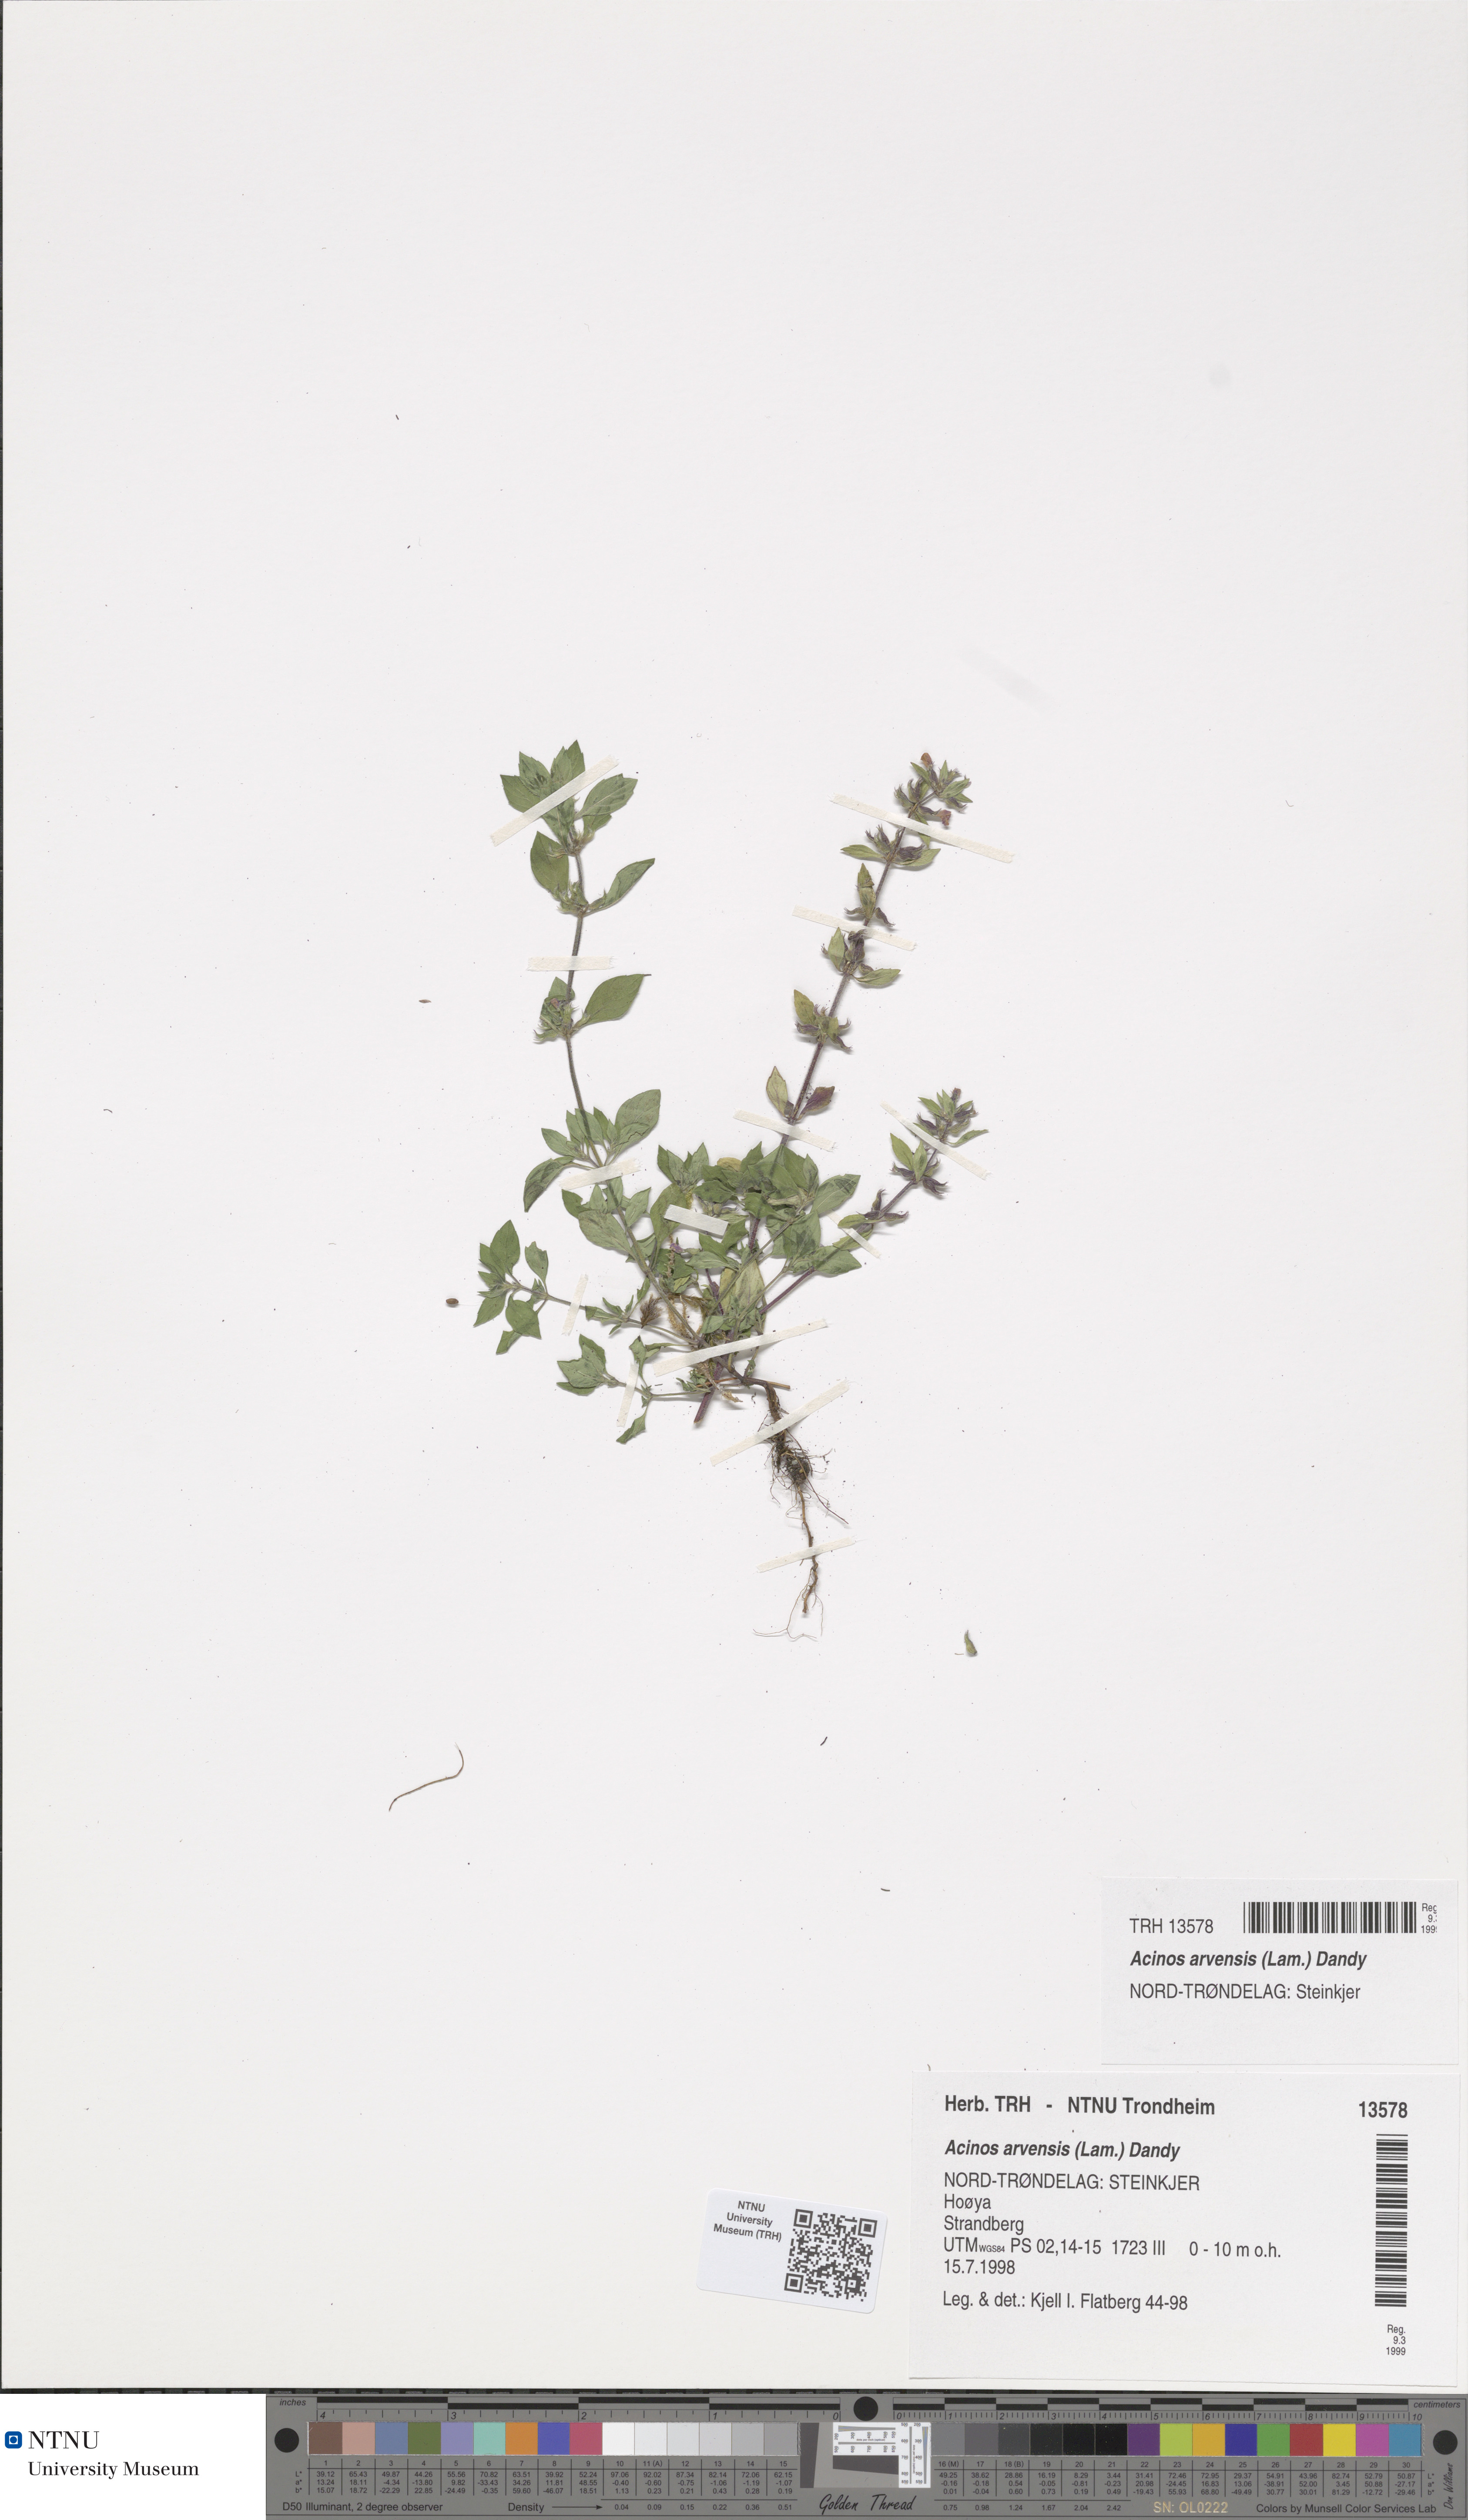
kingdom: Plantae
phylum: Tracheophyta
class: Magnoliopsida
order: Lamiales
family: Lamiaceae
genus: Clinopodium
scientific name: Clinopodium acinos
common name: Basil thyme
